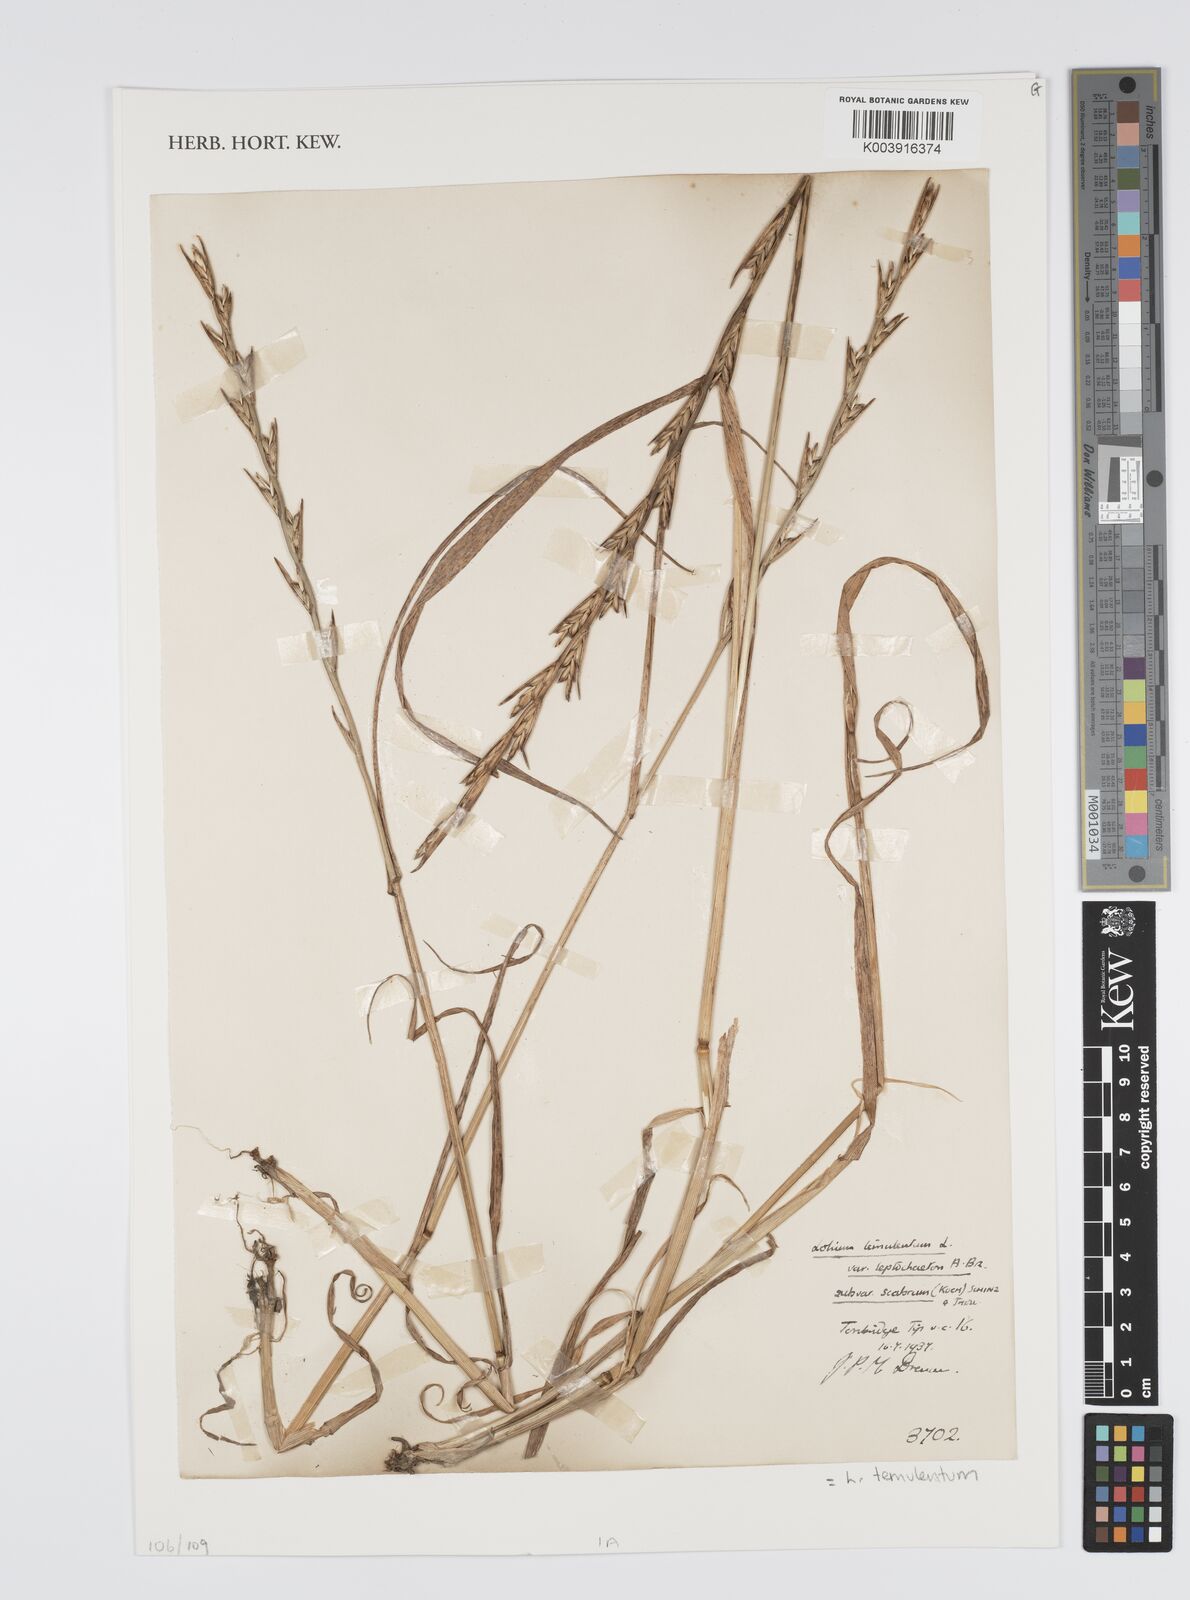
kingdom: Plantae
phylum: Tracheophyta
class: Liliopsida
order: Poales
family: Poaceae
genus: Lolium
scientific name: Lolium temulentum
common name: Darnel
